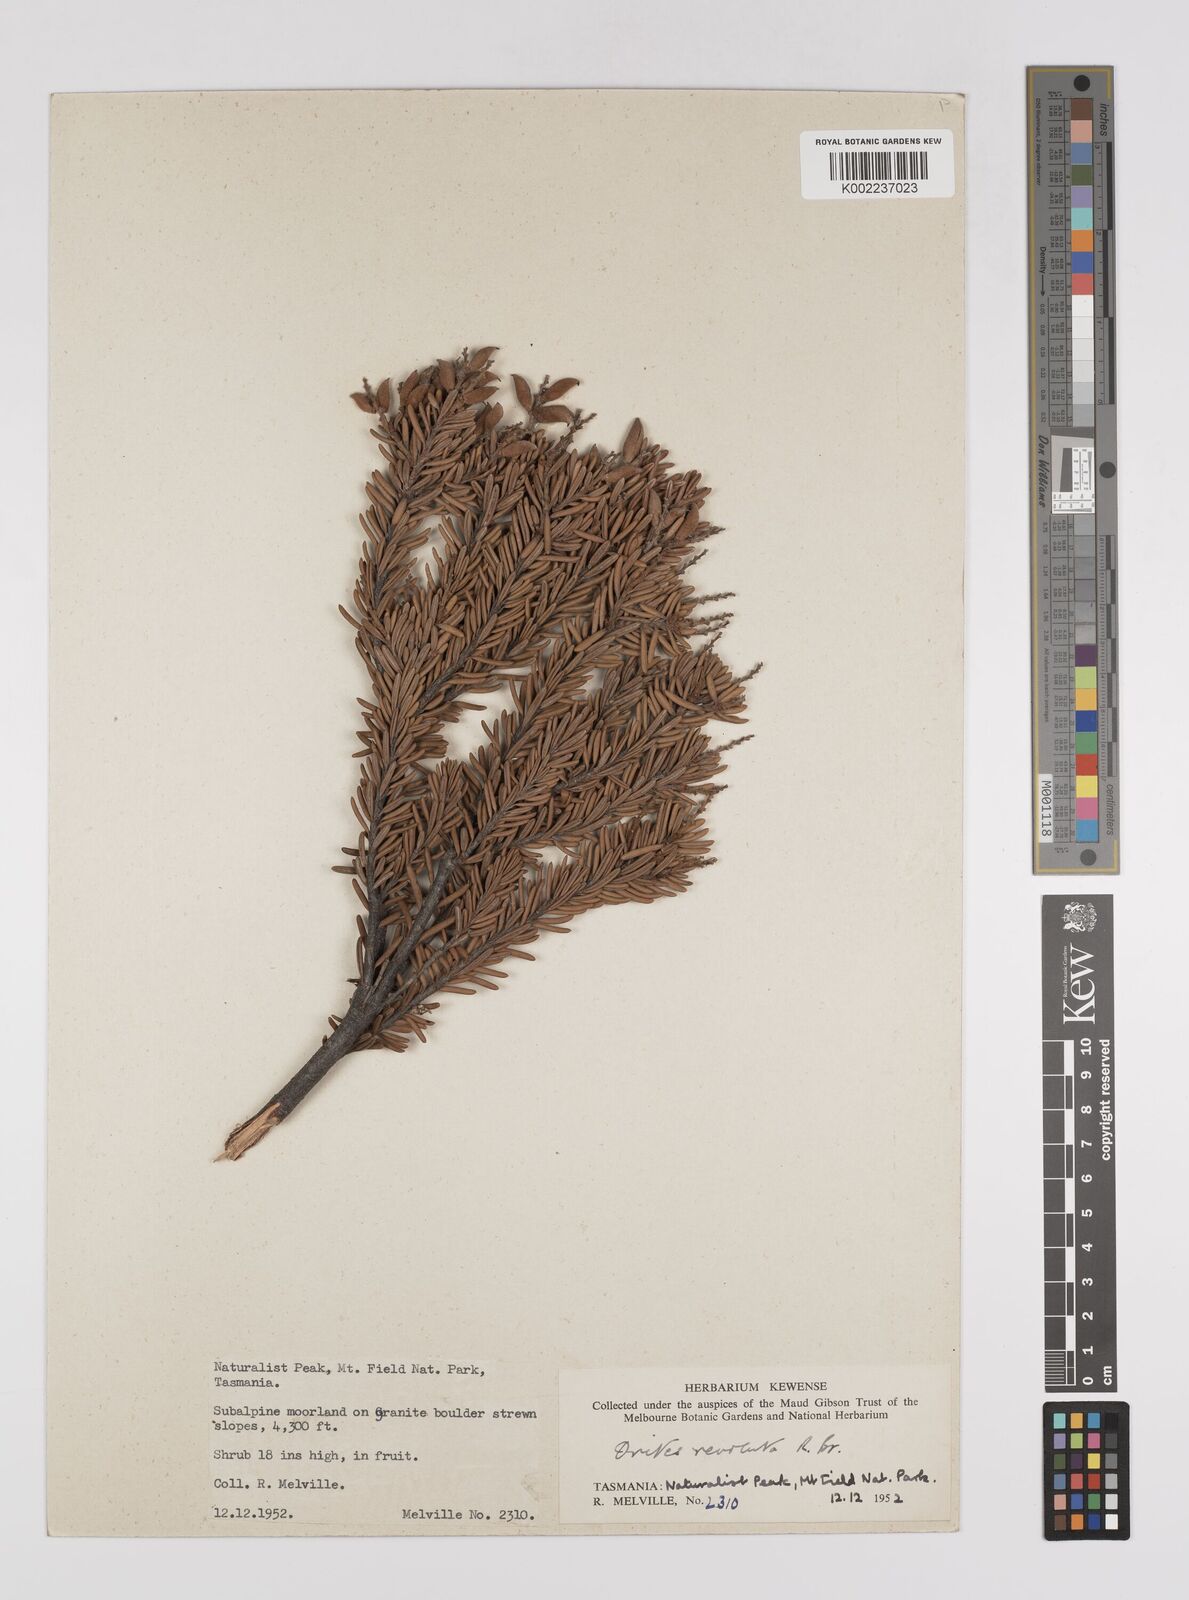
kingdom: Plantae
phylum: Tracheophyta
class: Magnoliopsida
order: Proteales
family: Proteaceae
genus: Orites
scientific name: Orites revolutus
